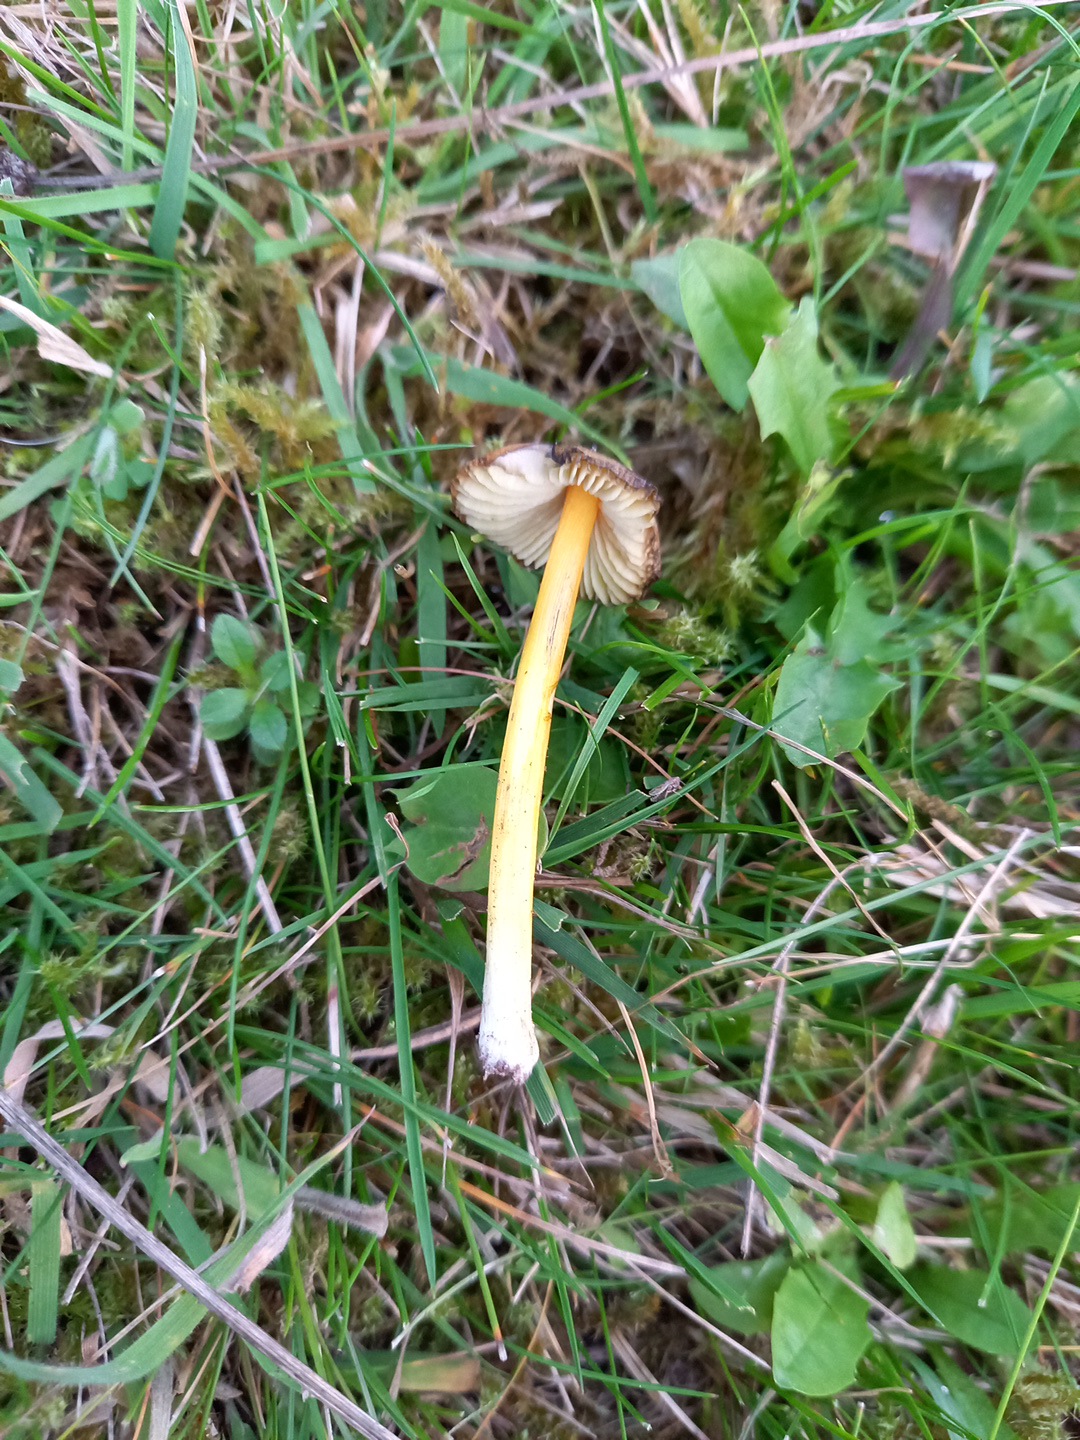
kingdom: Fungi
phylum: Basidiomycota
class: Agaricomycetes
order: Agaricales
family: Hygrophoraceae
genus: Hygrocybe
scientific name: Hygrocybe conica
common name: kegle-vokshat
